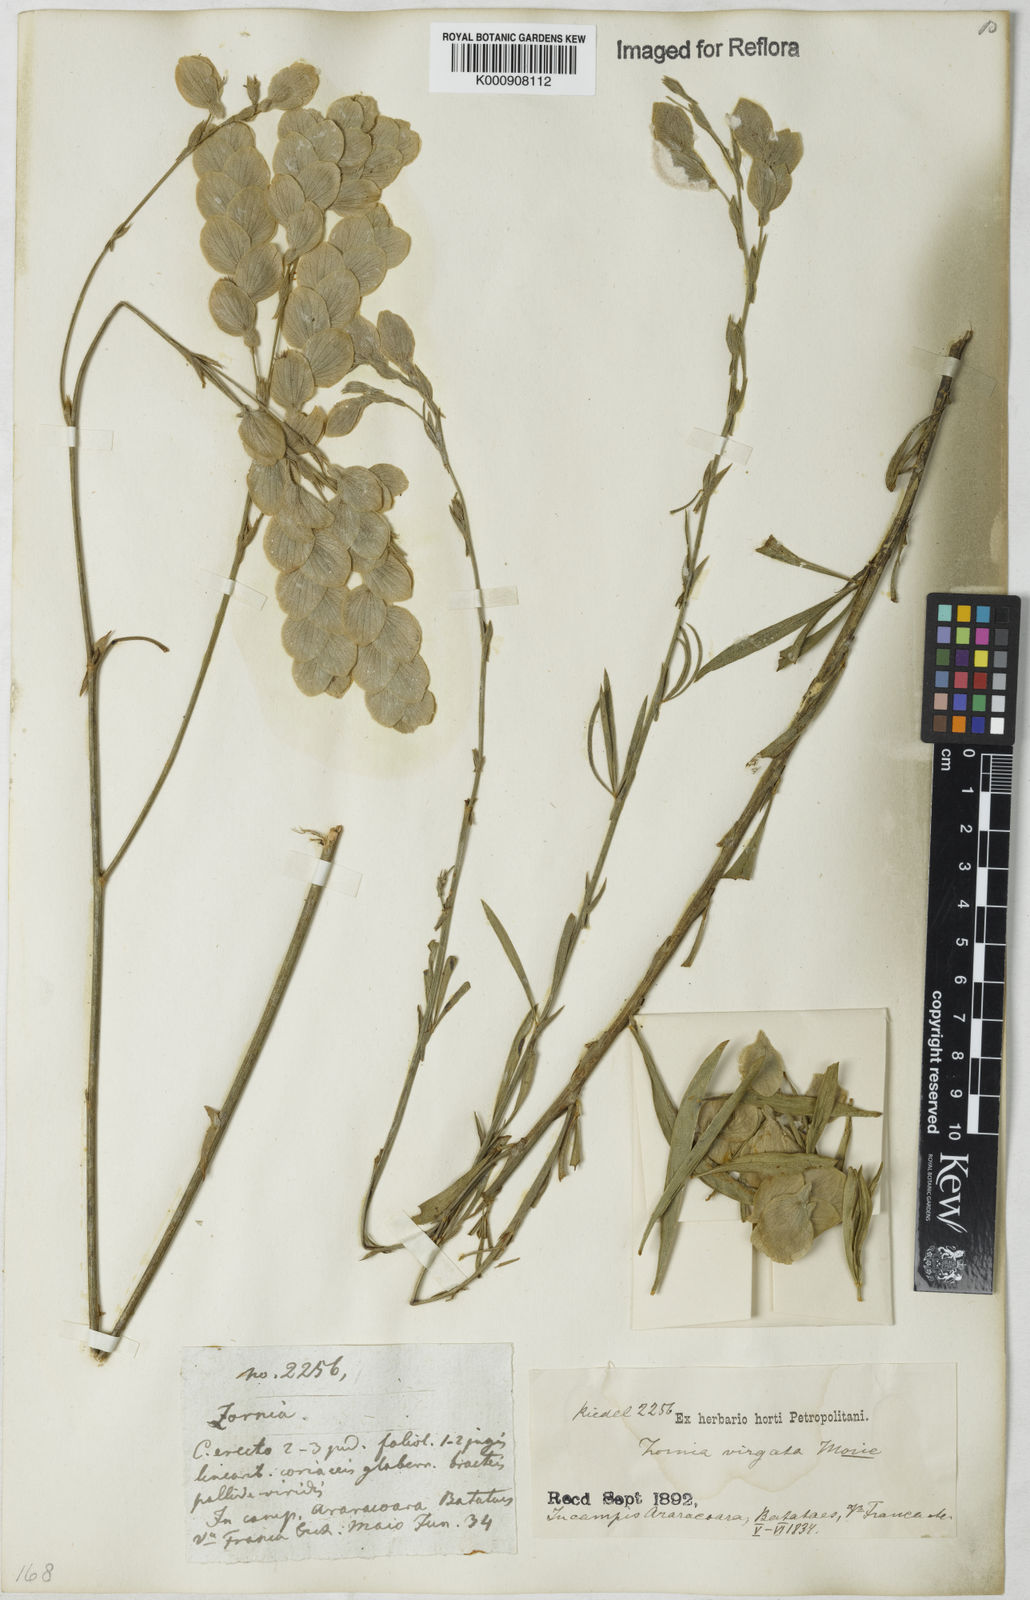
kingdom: Plantae
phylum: Tracheophyta
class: Magnoliopsida
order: Fabales
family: Fabaceae
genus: Zornia
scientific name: Zornia virgata
